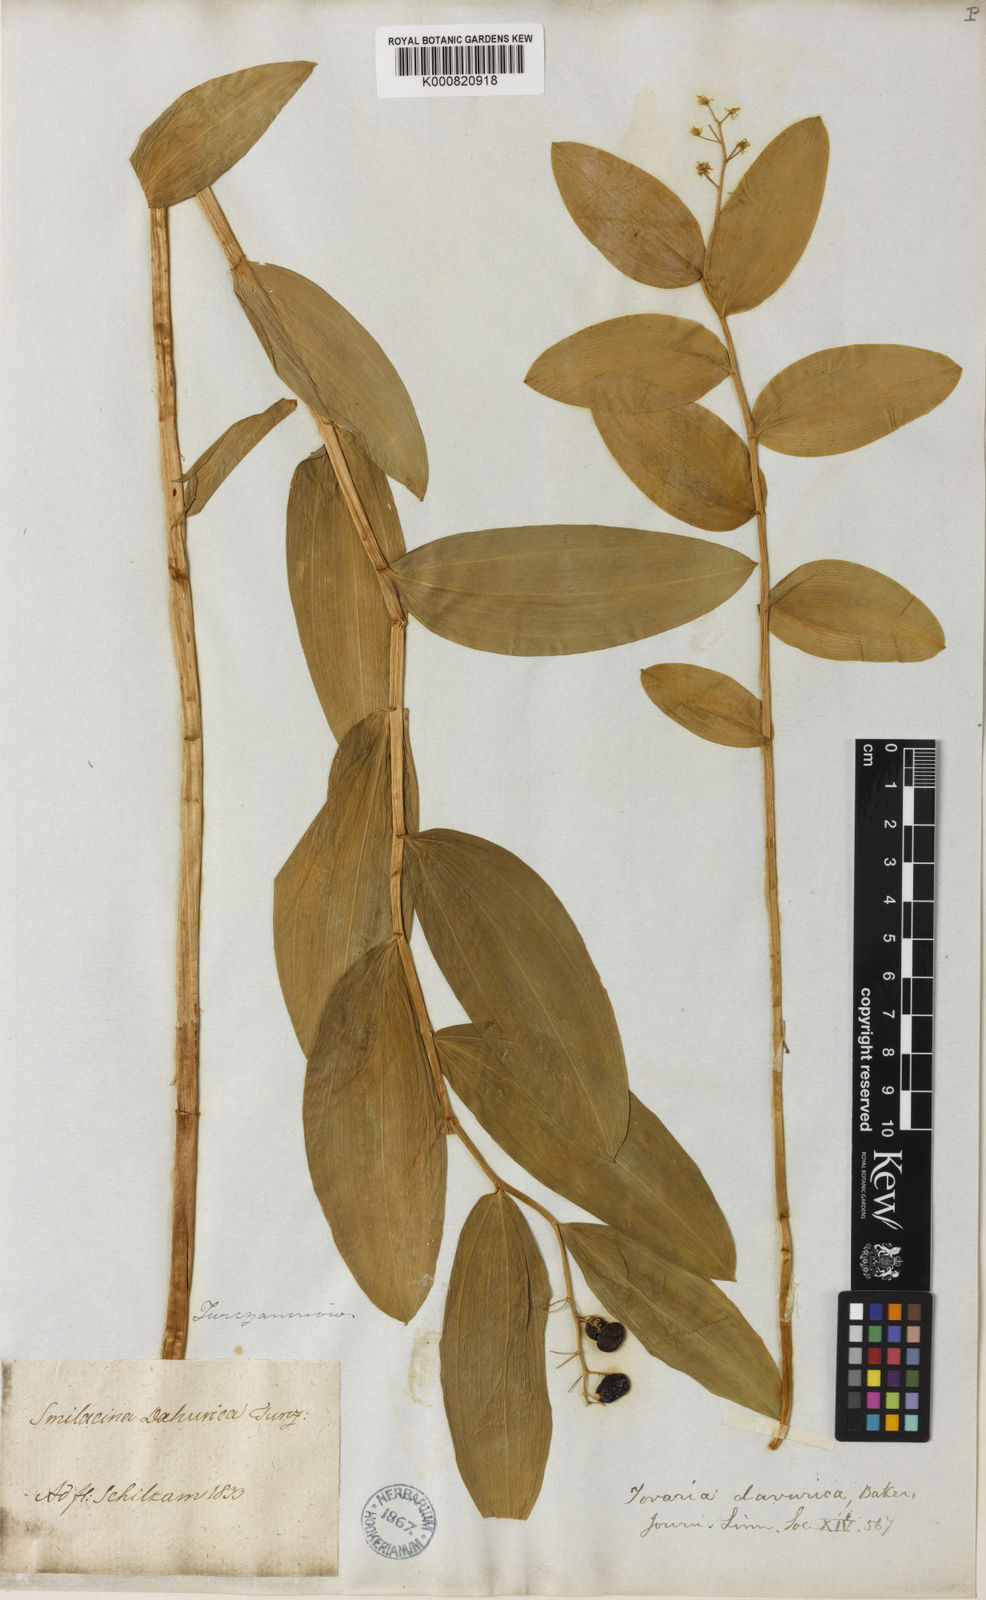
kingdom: Plantae
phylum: Tracheophyta
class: Liliopsida
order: Asparagales
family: Asparagaceae
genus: Maianthemum
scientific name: Maianthemum dahuricum
